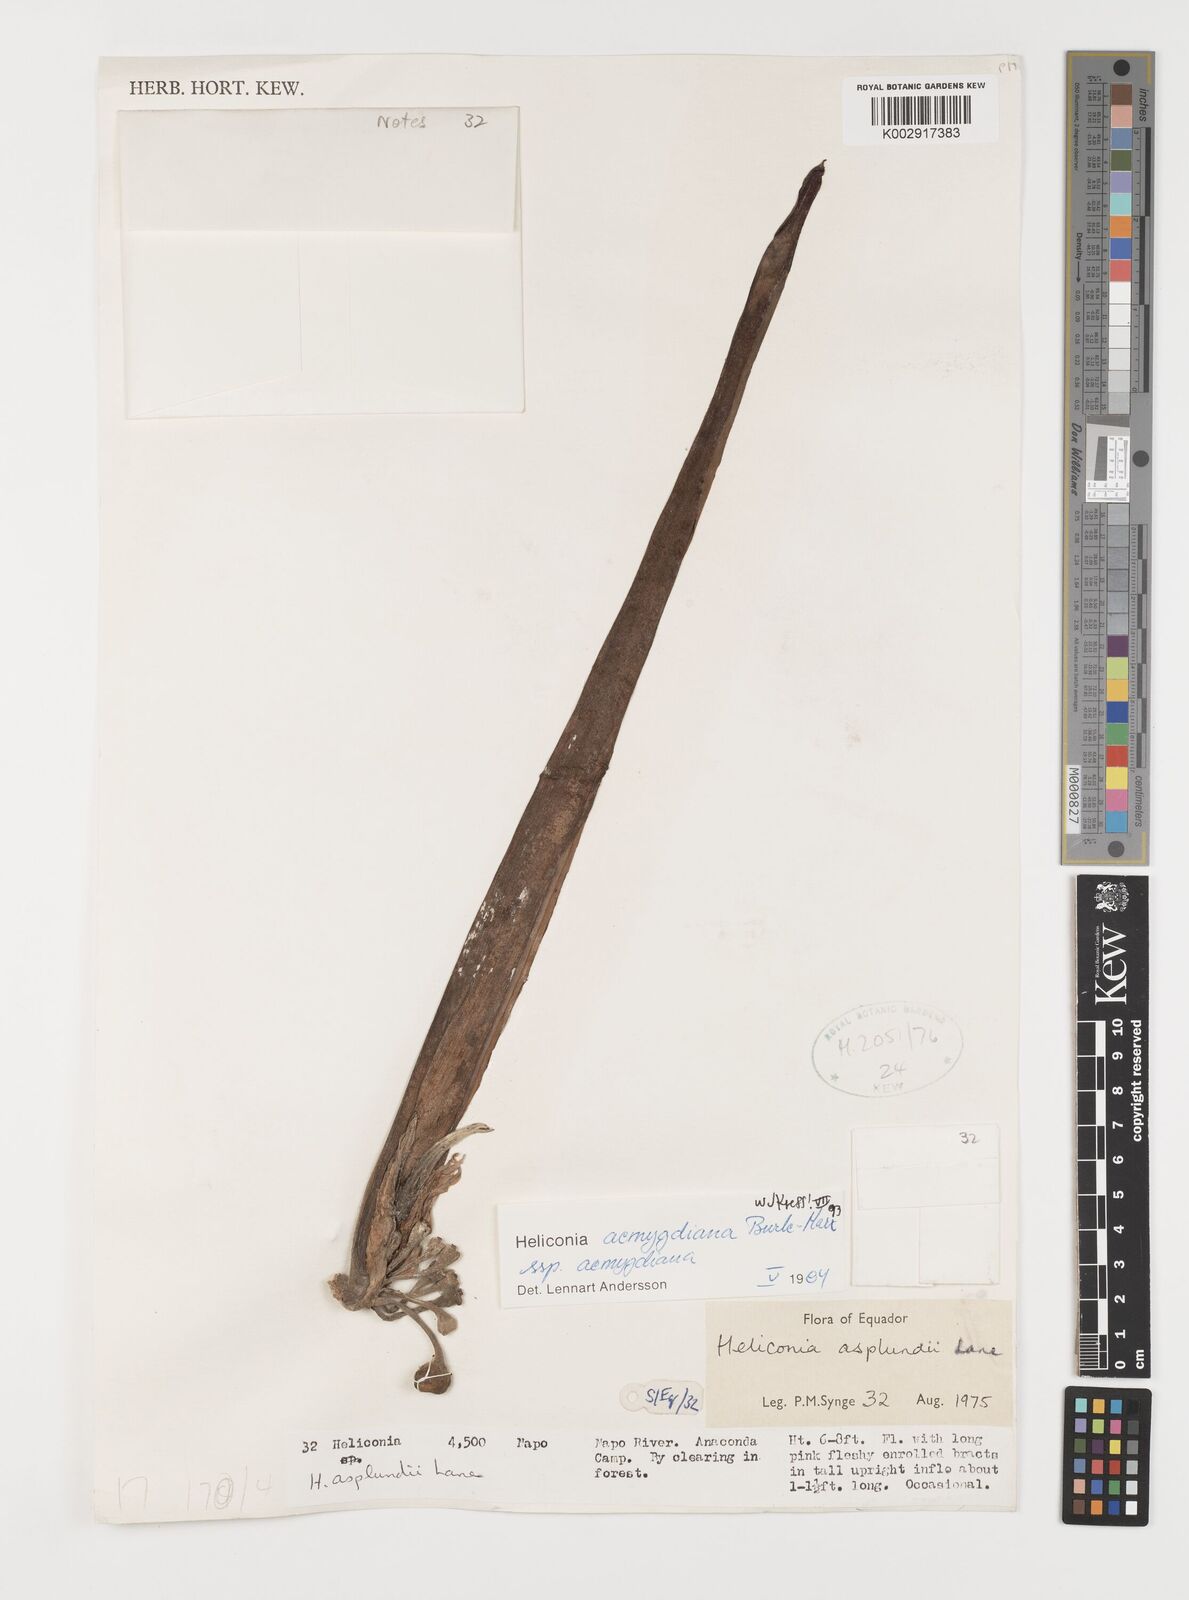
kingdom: Plantae
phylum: Tracheophyta
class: Liliopsida
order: Zingiberales
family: Heliconiaceae
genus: Heliconia
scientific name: Heliconia aemygdiana
